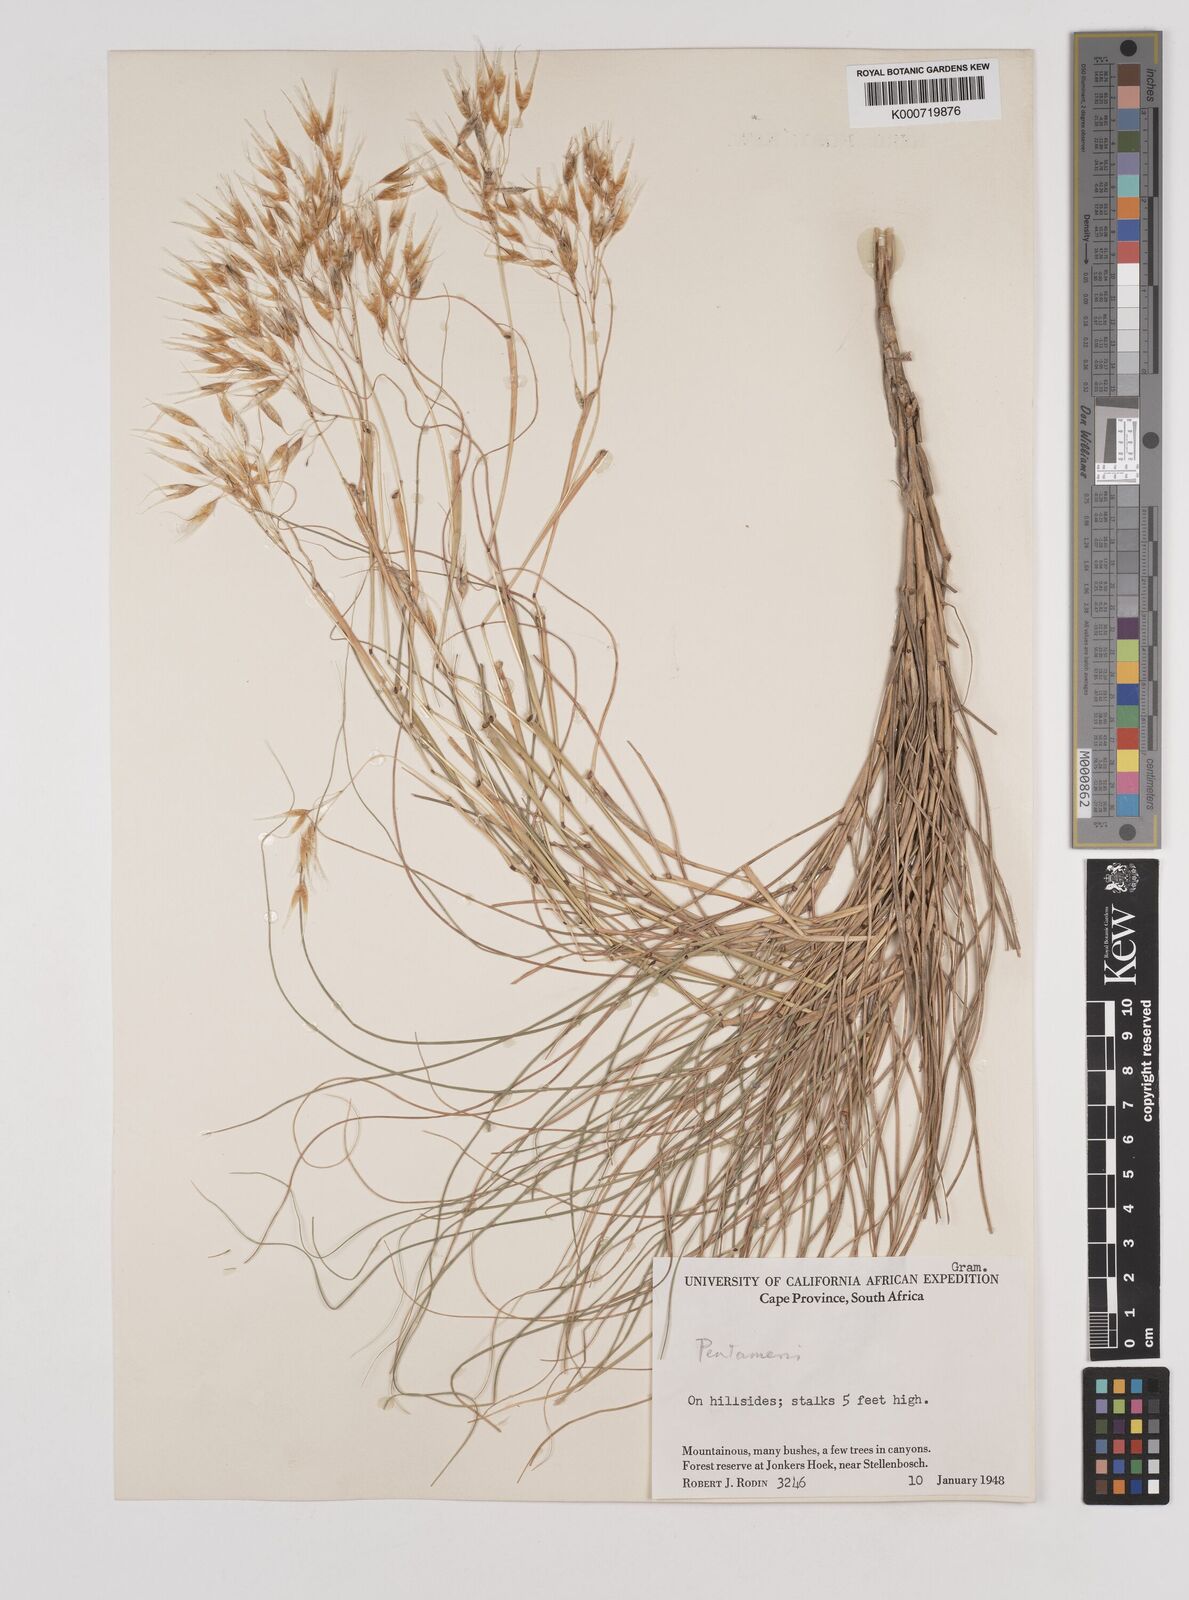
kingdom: Plantae
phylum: Tracheophyta
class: Liliopsida
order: Poales
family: Poaceae
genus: Pentameris
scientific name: Pentameris thuarii
